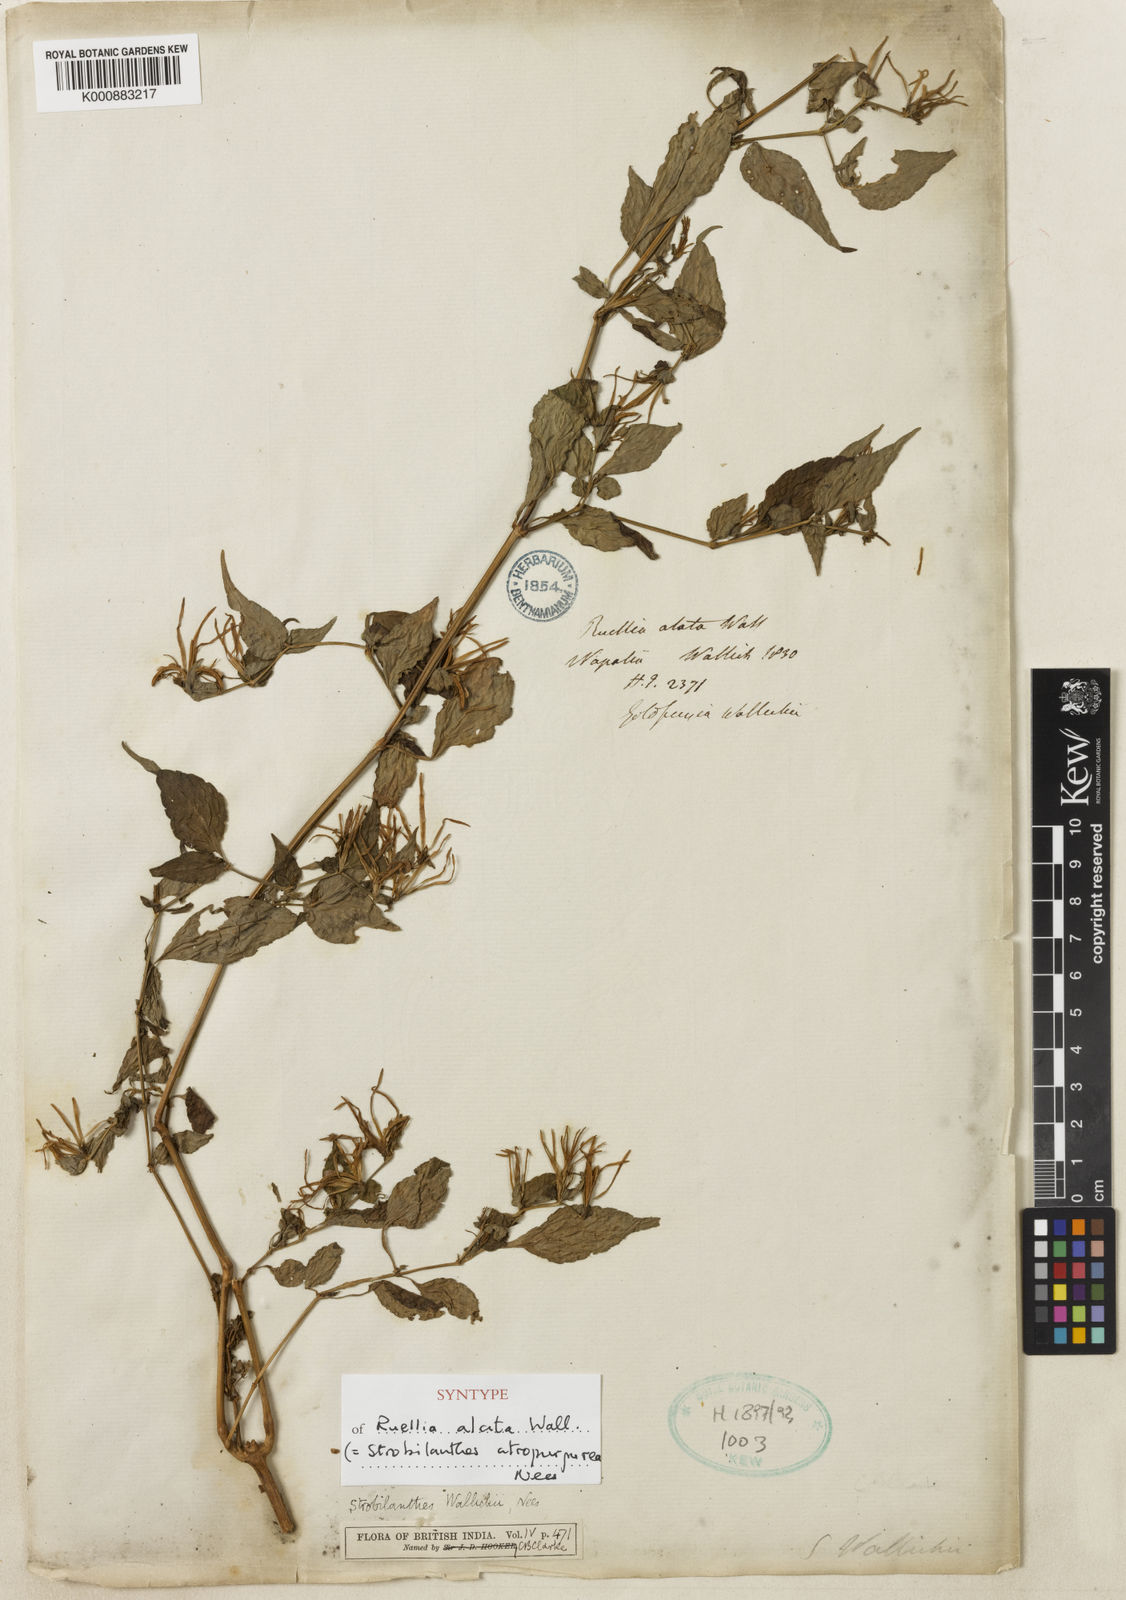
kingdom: Plantae
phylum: Tracheophyta
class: Magnoliopsida
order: Lamiales
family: Acanthaceae
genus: Strobilanthes
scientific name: Strobilanthes wallichii
